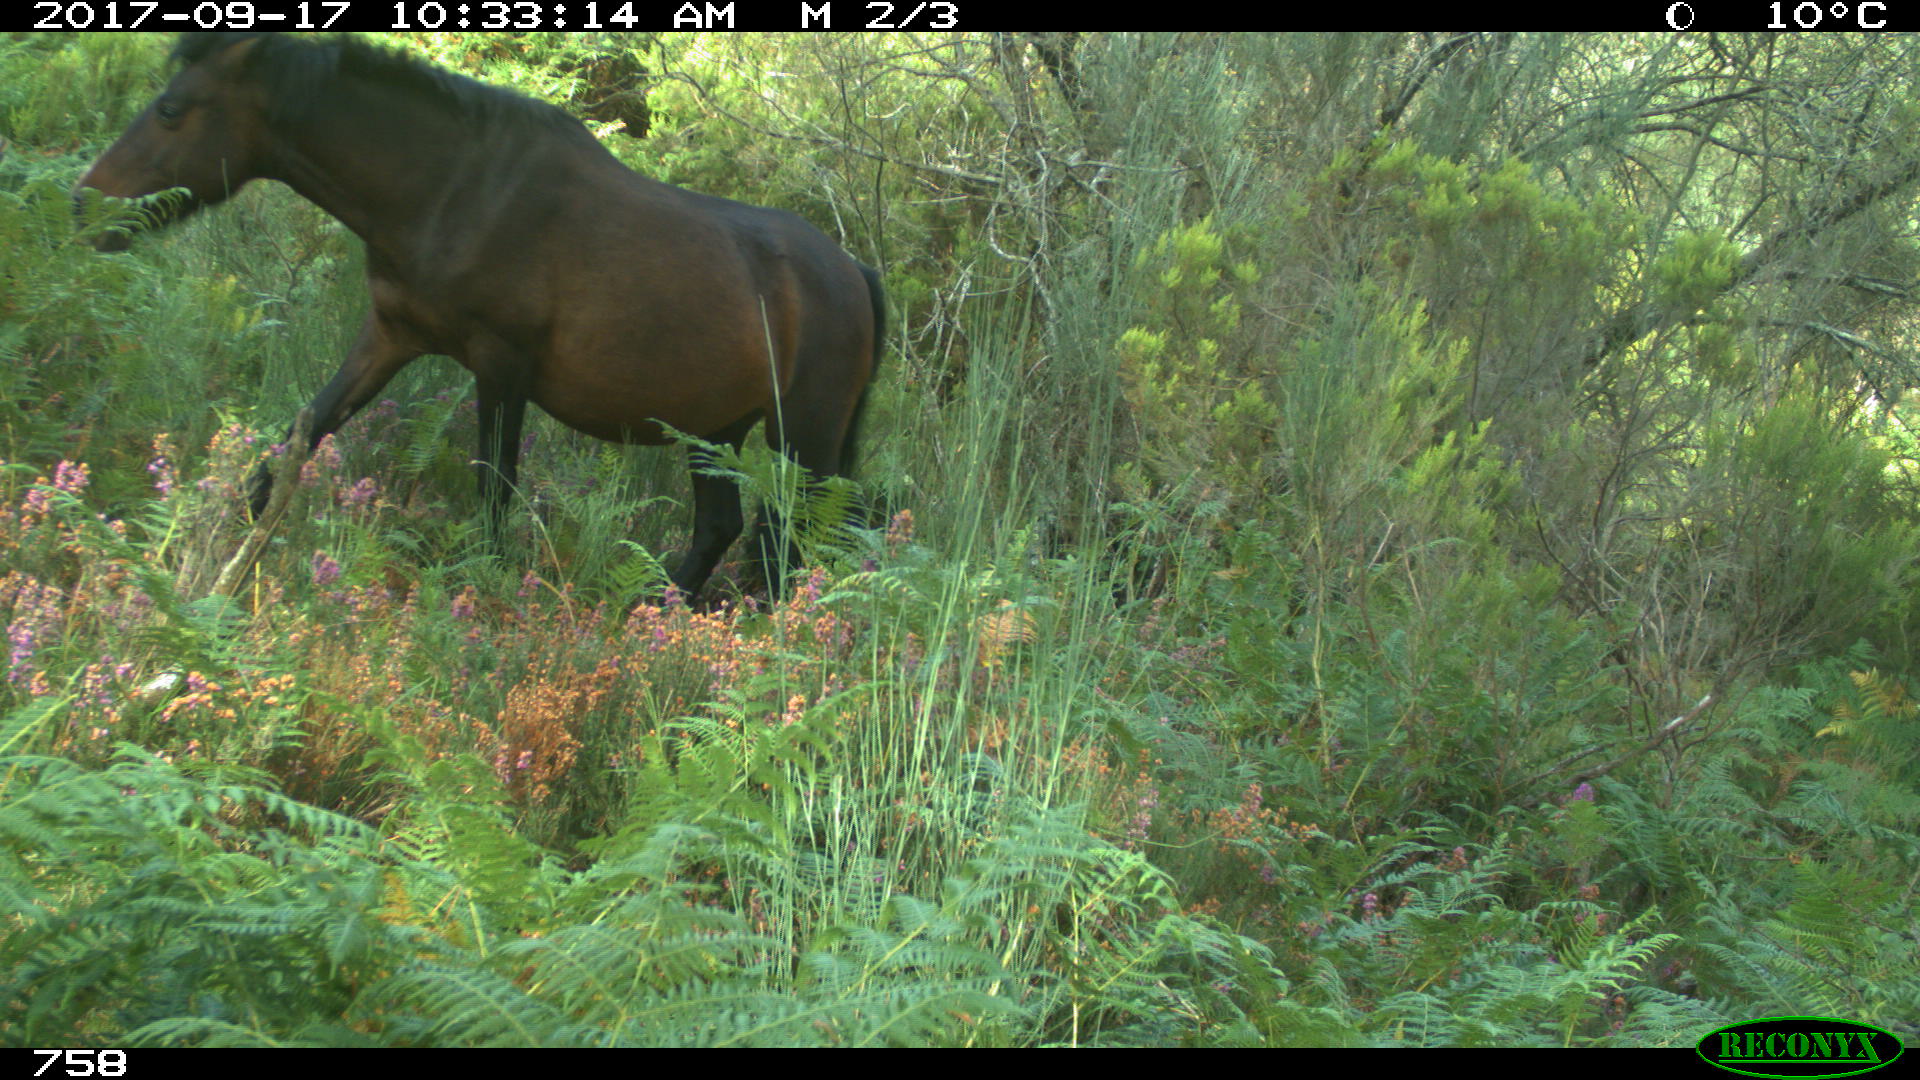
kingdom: Animalia
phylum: Chordata
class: Mammalia
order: Perissodactyla
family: Equidae
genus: Equus
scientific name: Equus caballus
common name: Horse
